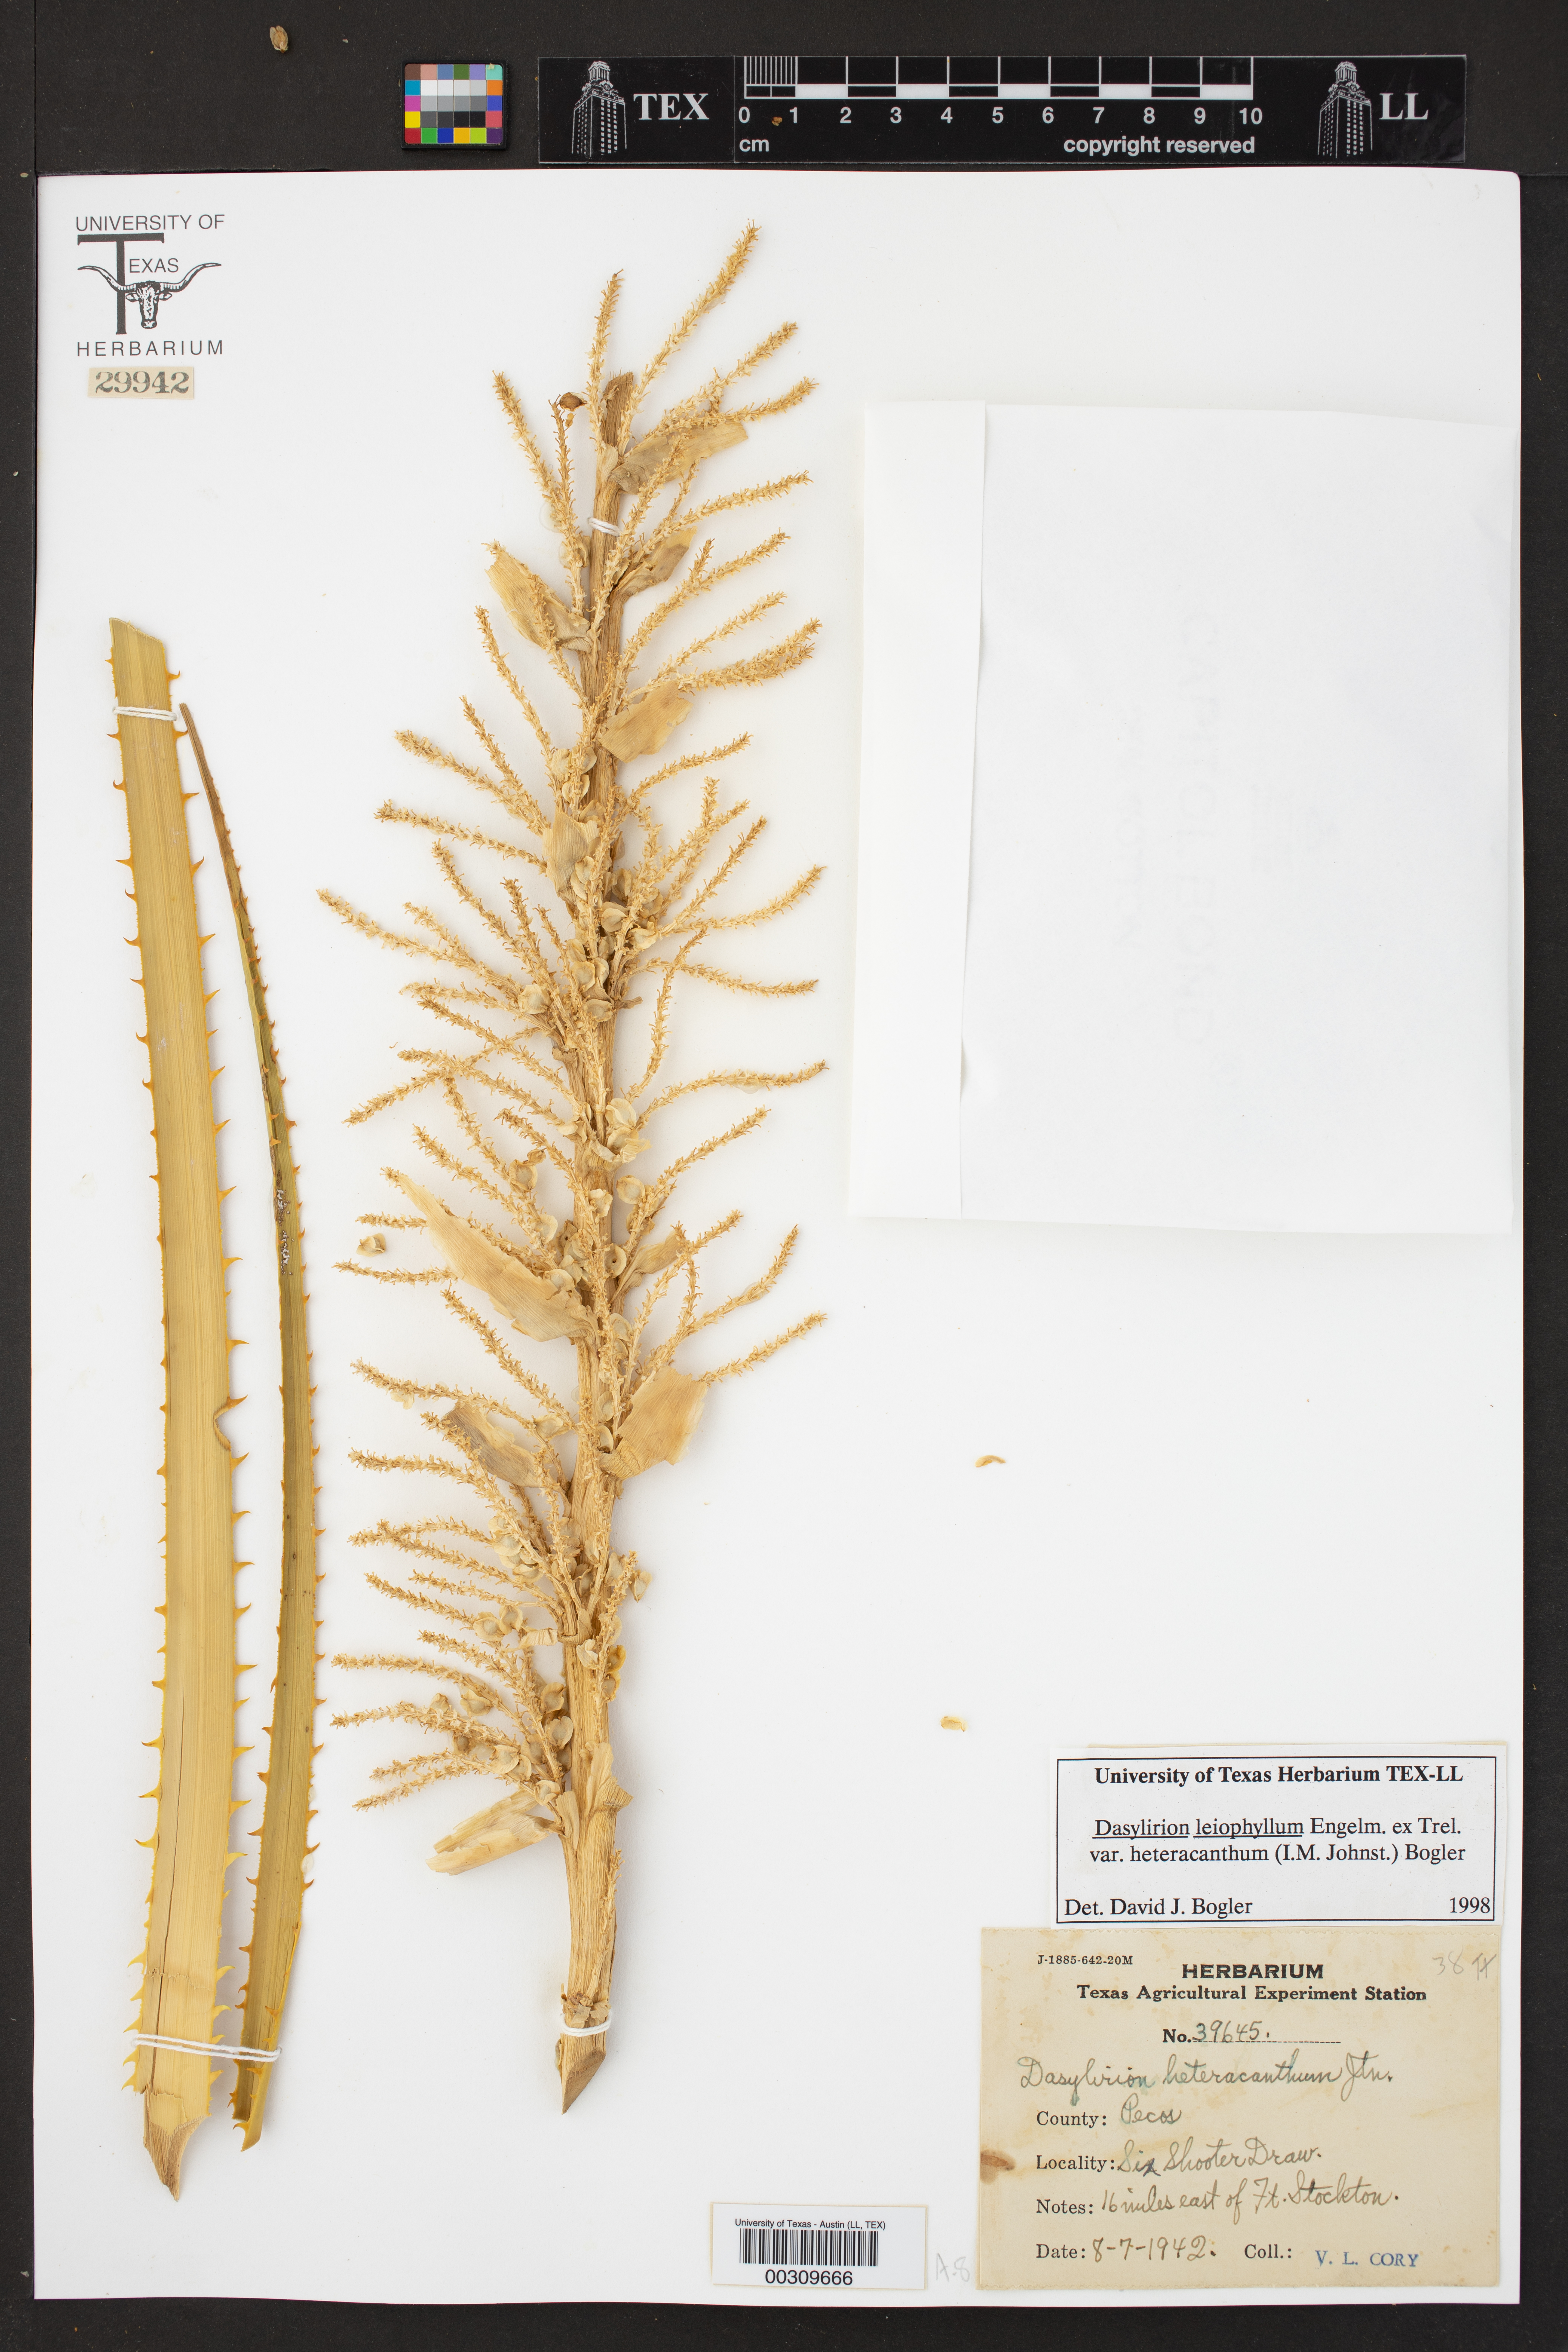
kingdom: Plantae
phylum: Tracheophyta
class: Liliopsida
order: Asparagales
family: Asparagaceae
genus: Dasylirion
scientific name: Dasylirion leiophyllum
